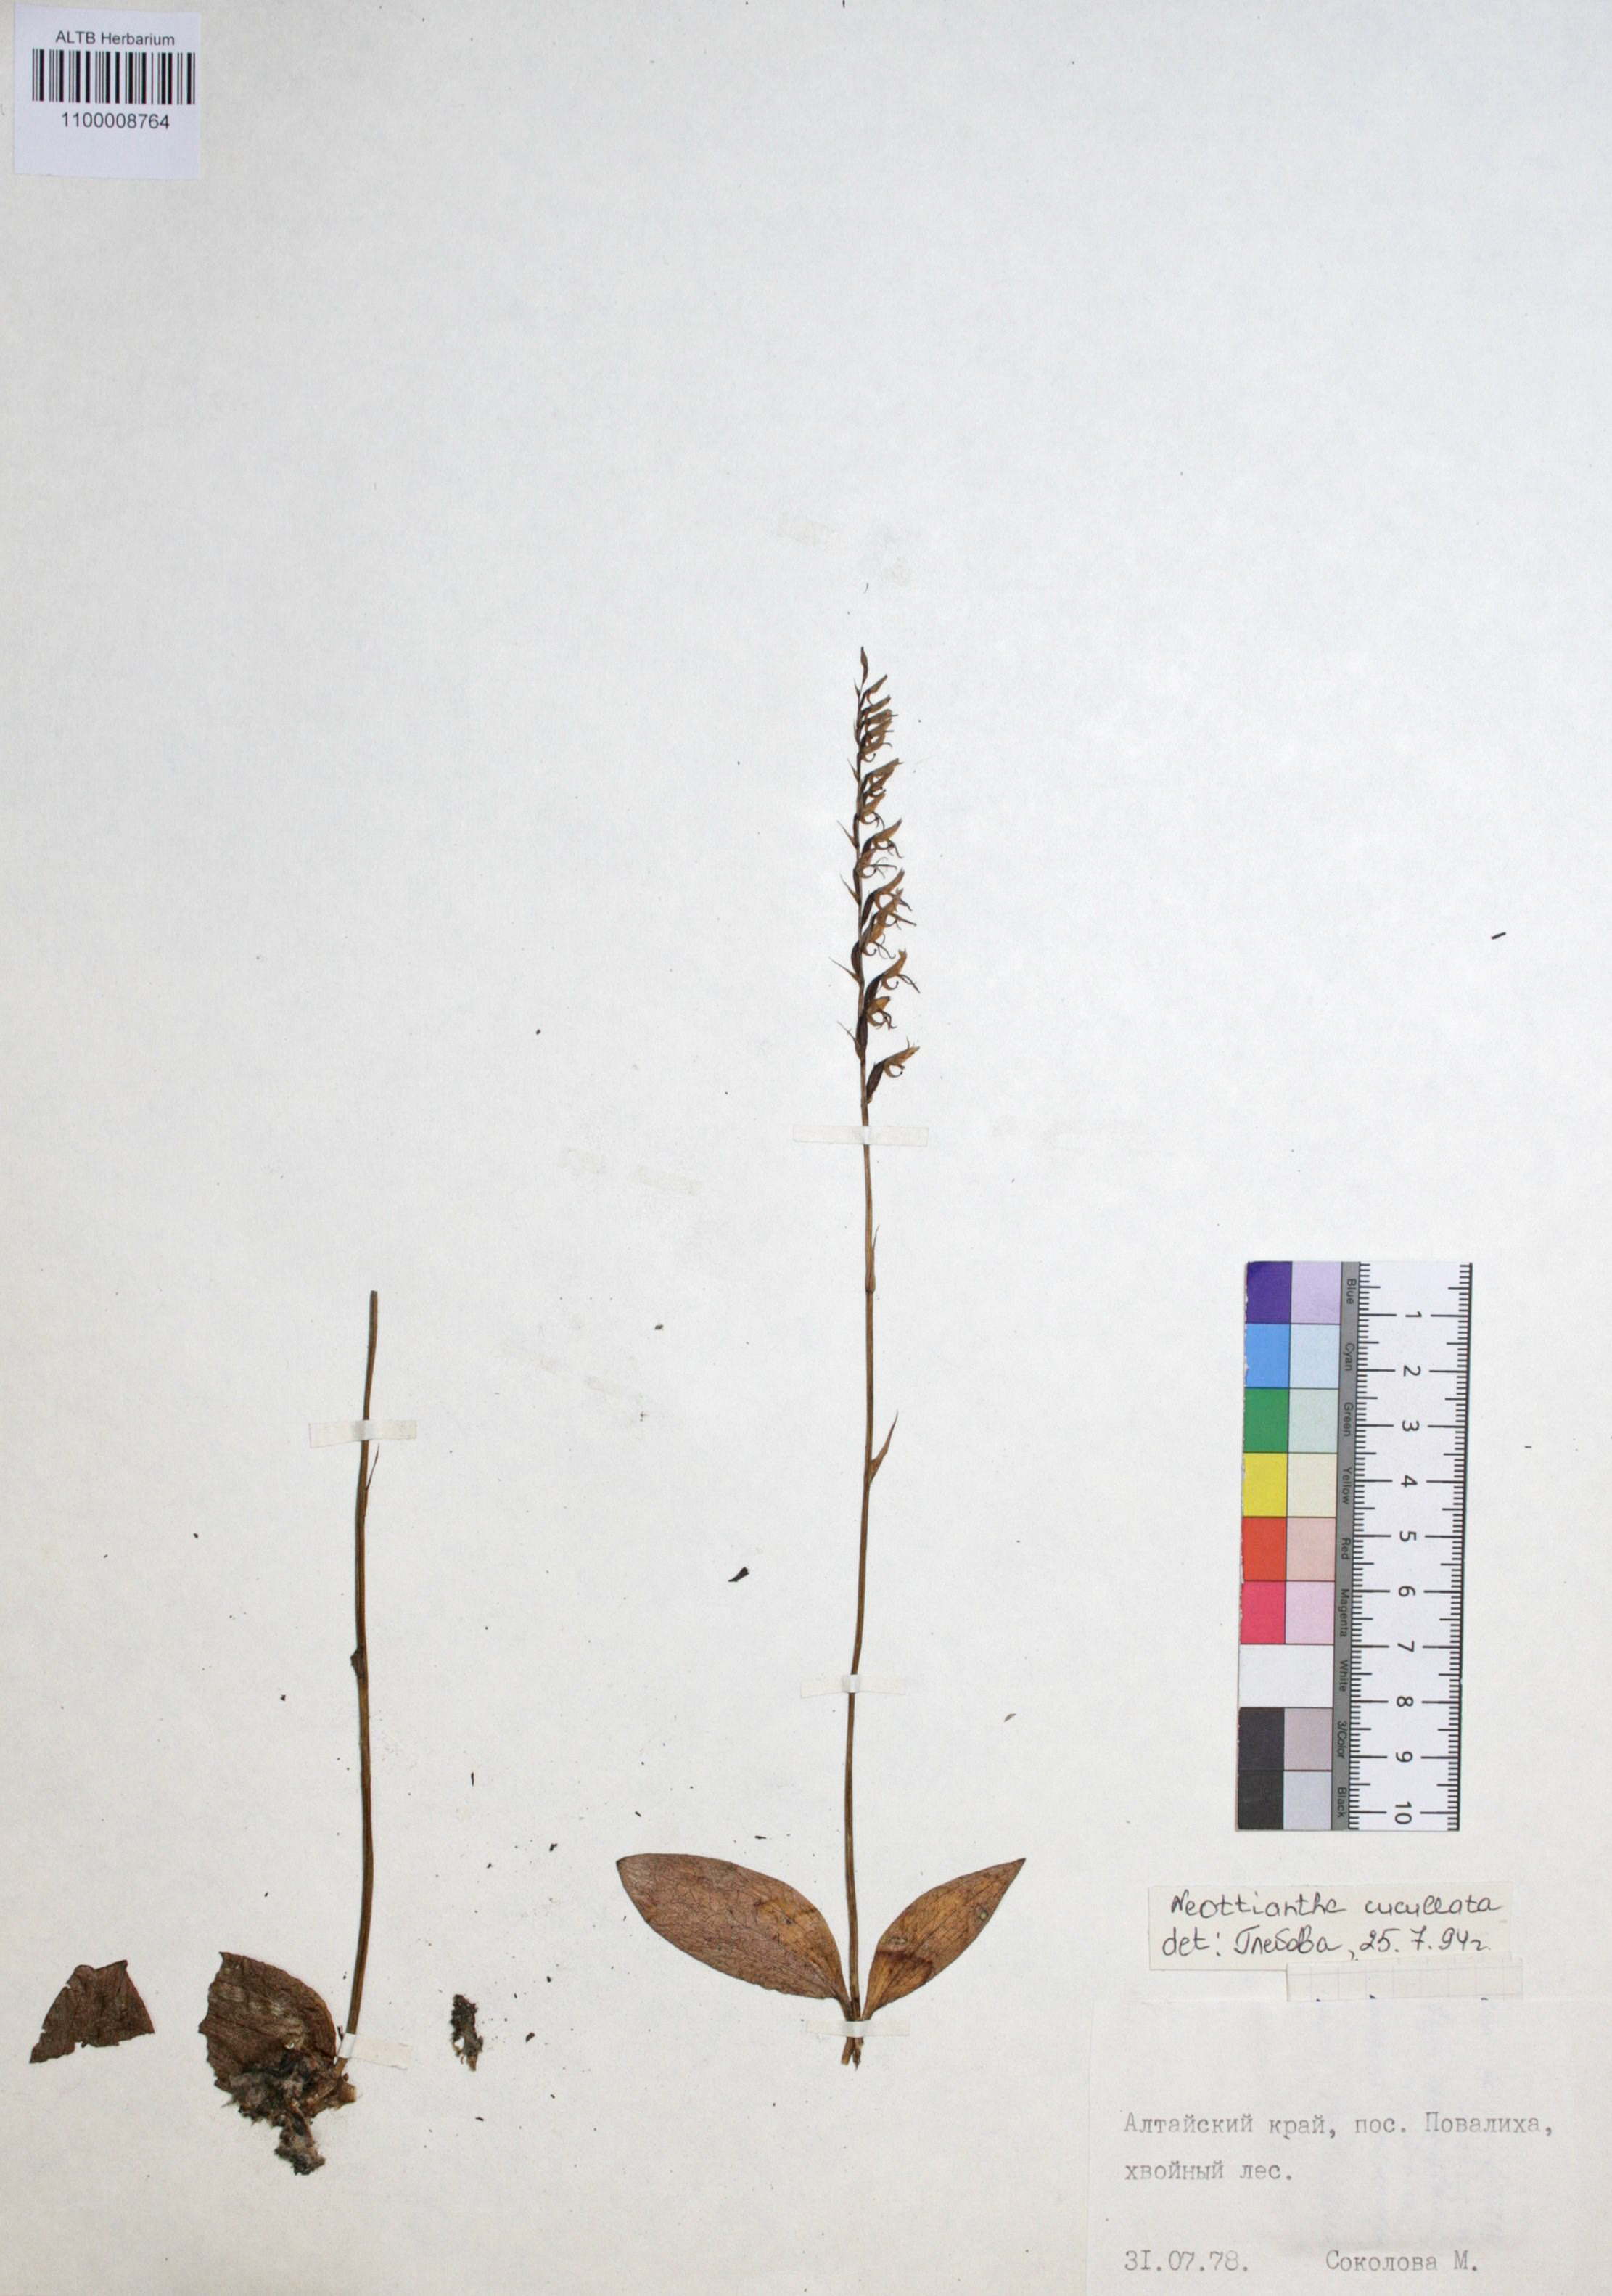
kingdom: Plantae
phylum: Tracheophyta
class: Liliopsida
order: Asparagales
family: Orchidaceae
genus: Hemipilia
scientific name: Hemipilia cucullata
